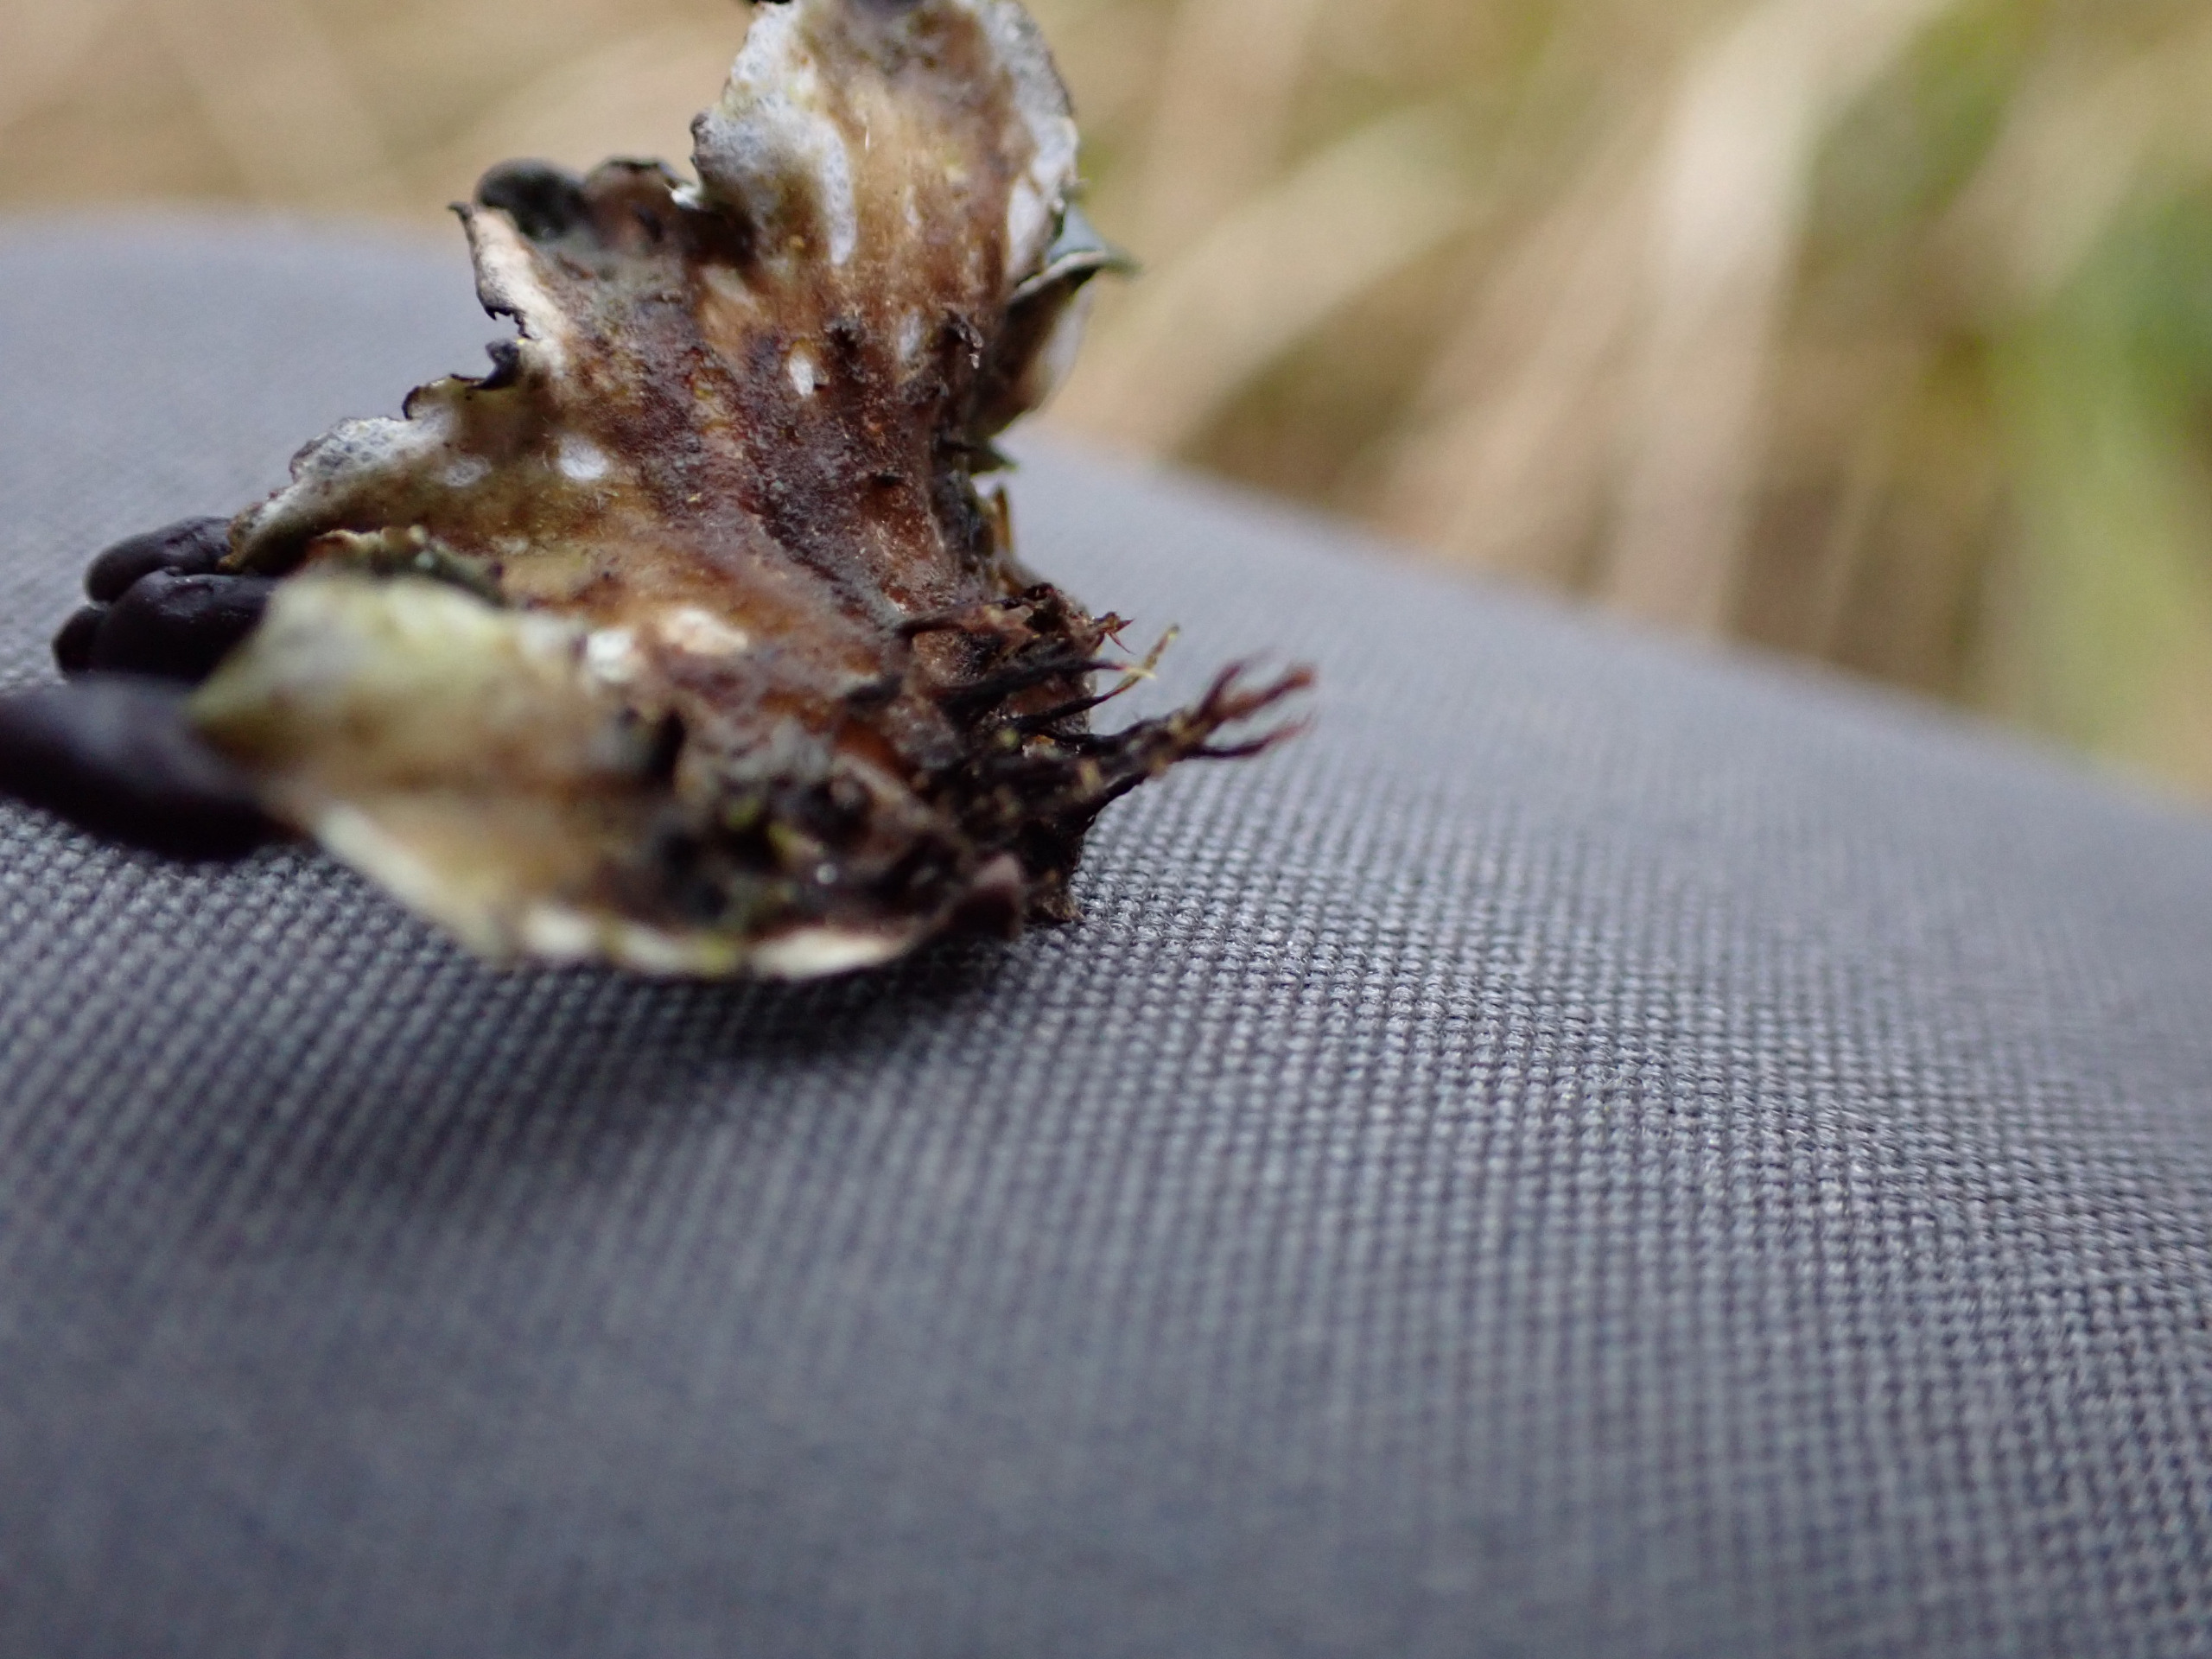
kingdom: Fungi
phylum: Ascomycota
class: Lecanoromycetes
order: Peltigerales
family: Peltigeraceae
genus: Peltigera
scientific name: Peltigera neckeri
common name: Glinsende skjoldlav
